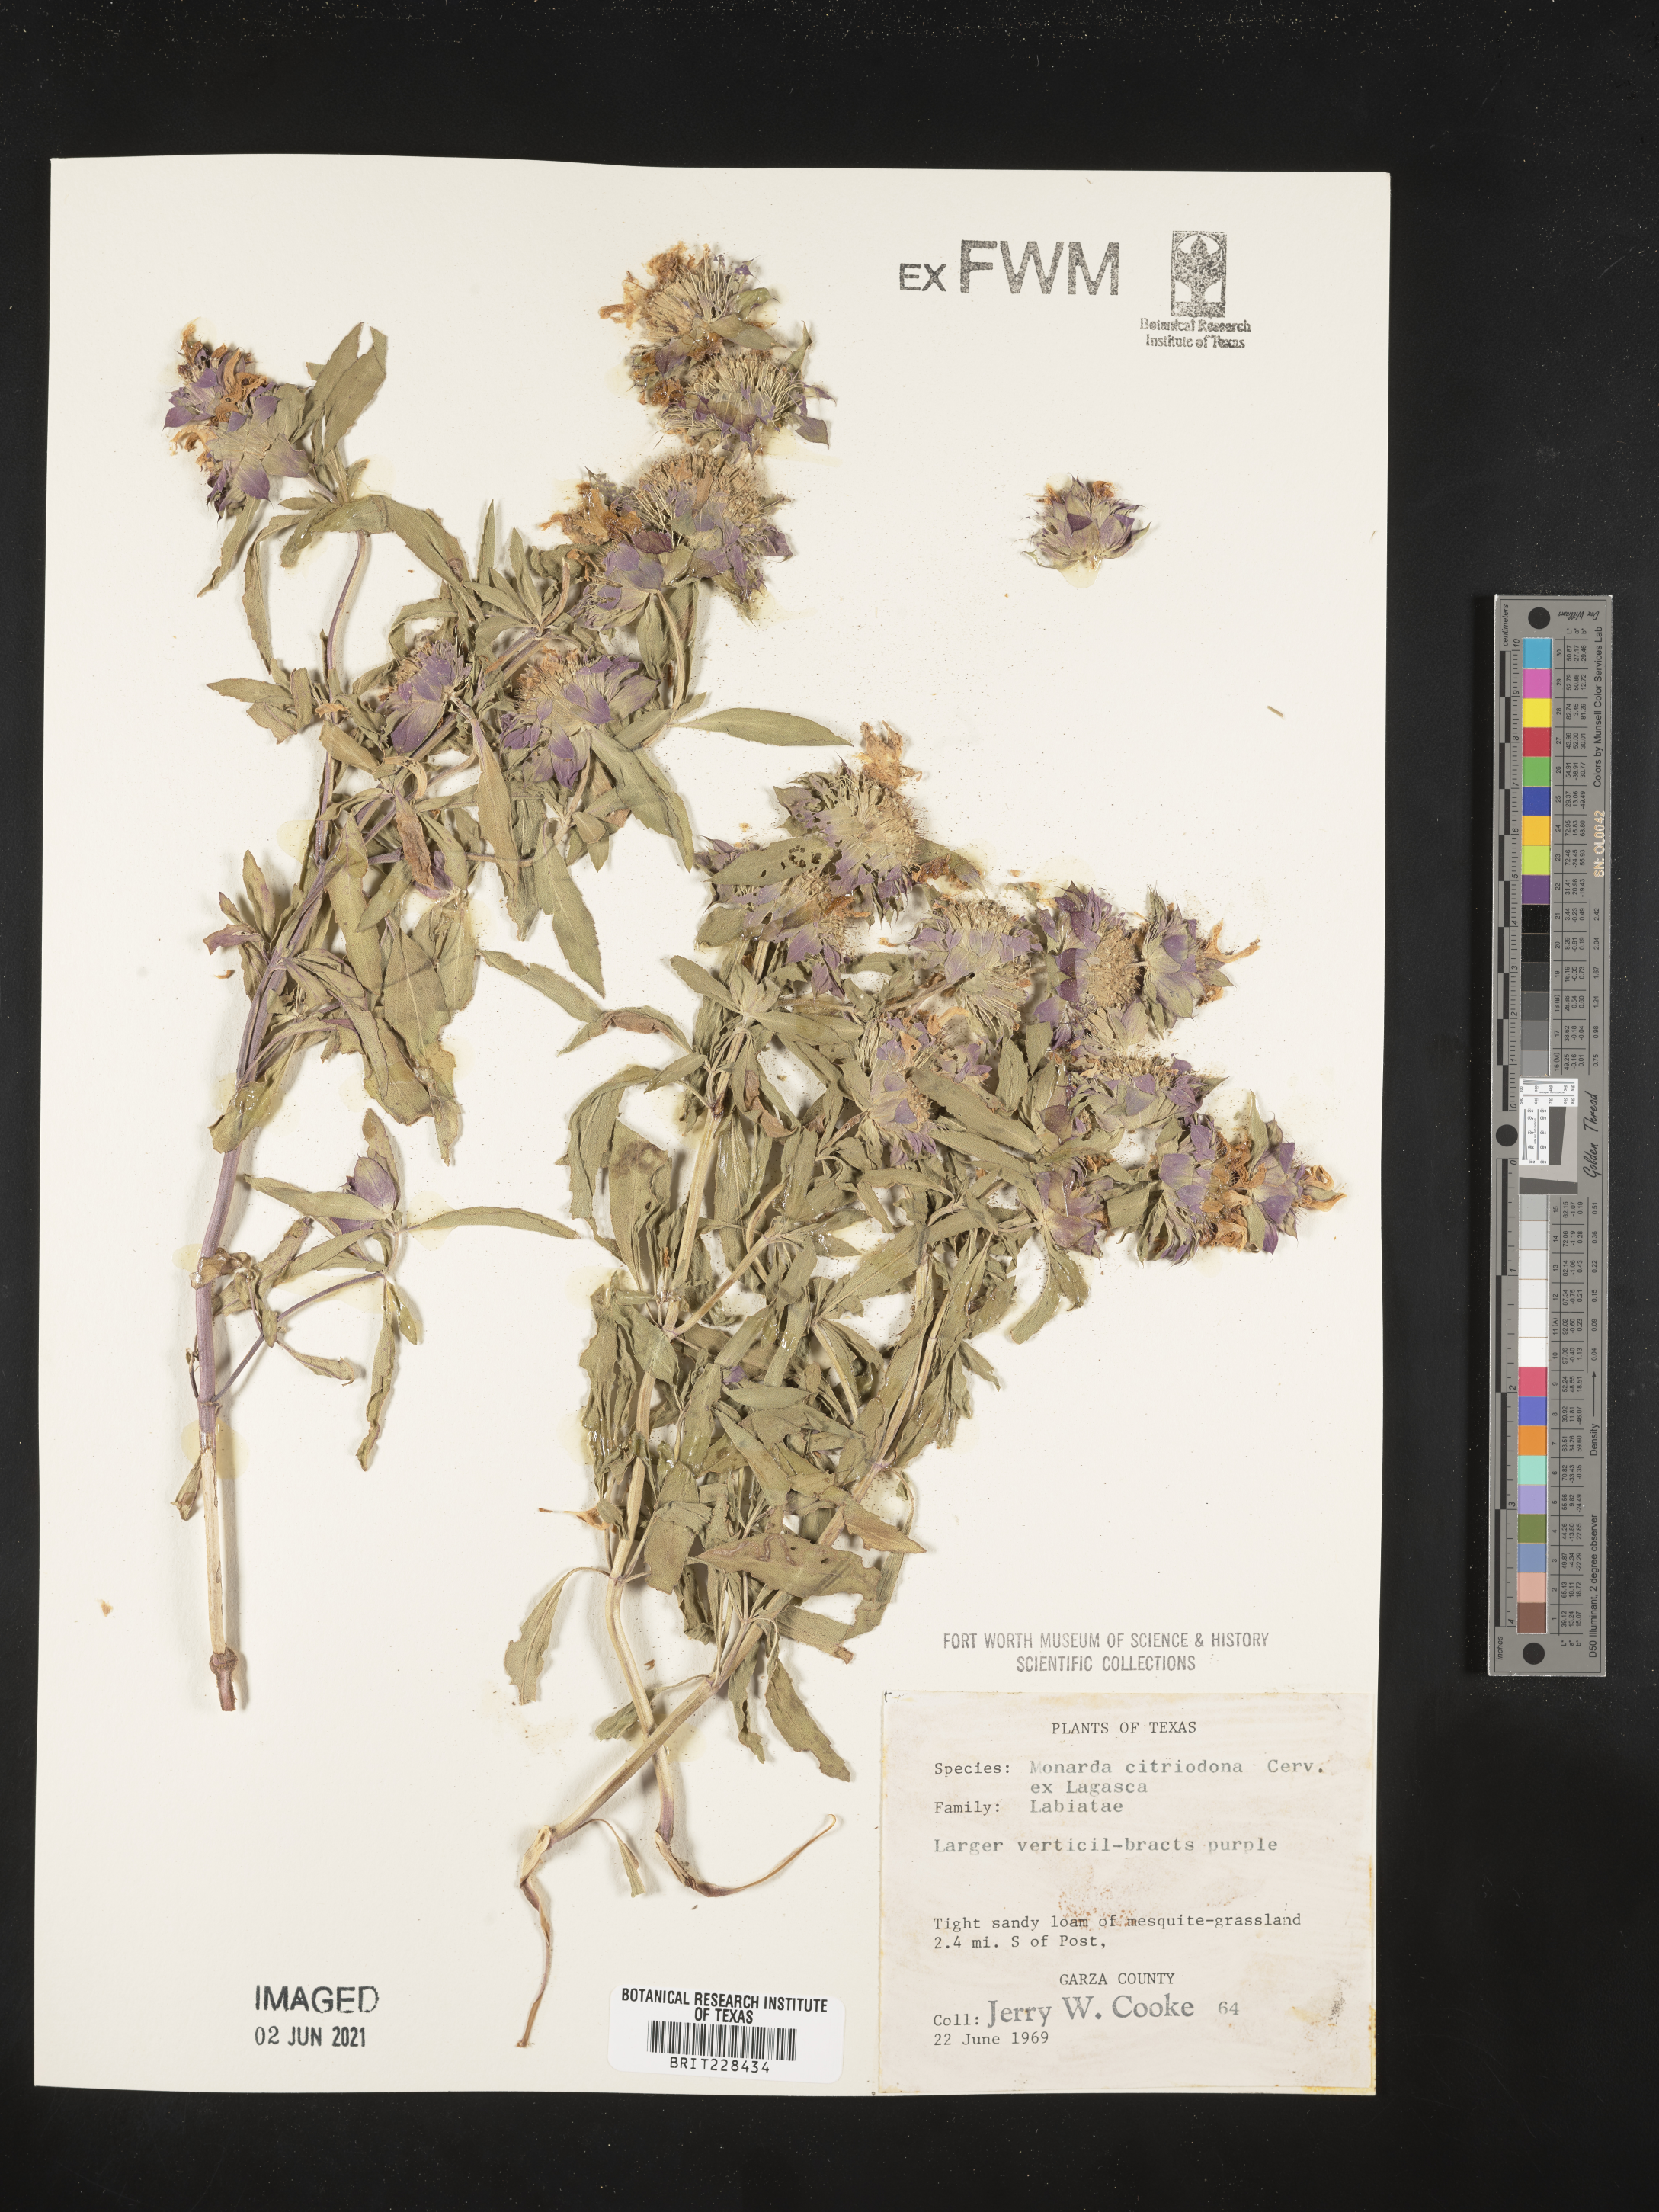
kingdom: Plantae
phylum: Tracheophyta
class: Magnoliopsida
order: Lamiales
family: Lamiaceae
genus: Monarda
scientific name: Monarda citriodora
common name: Lemon beebalm
